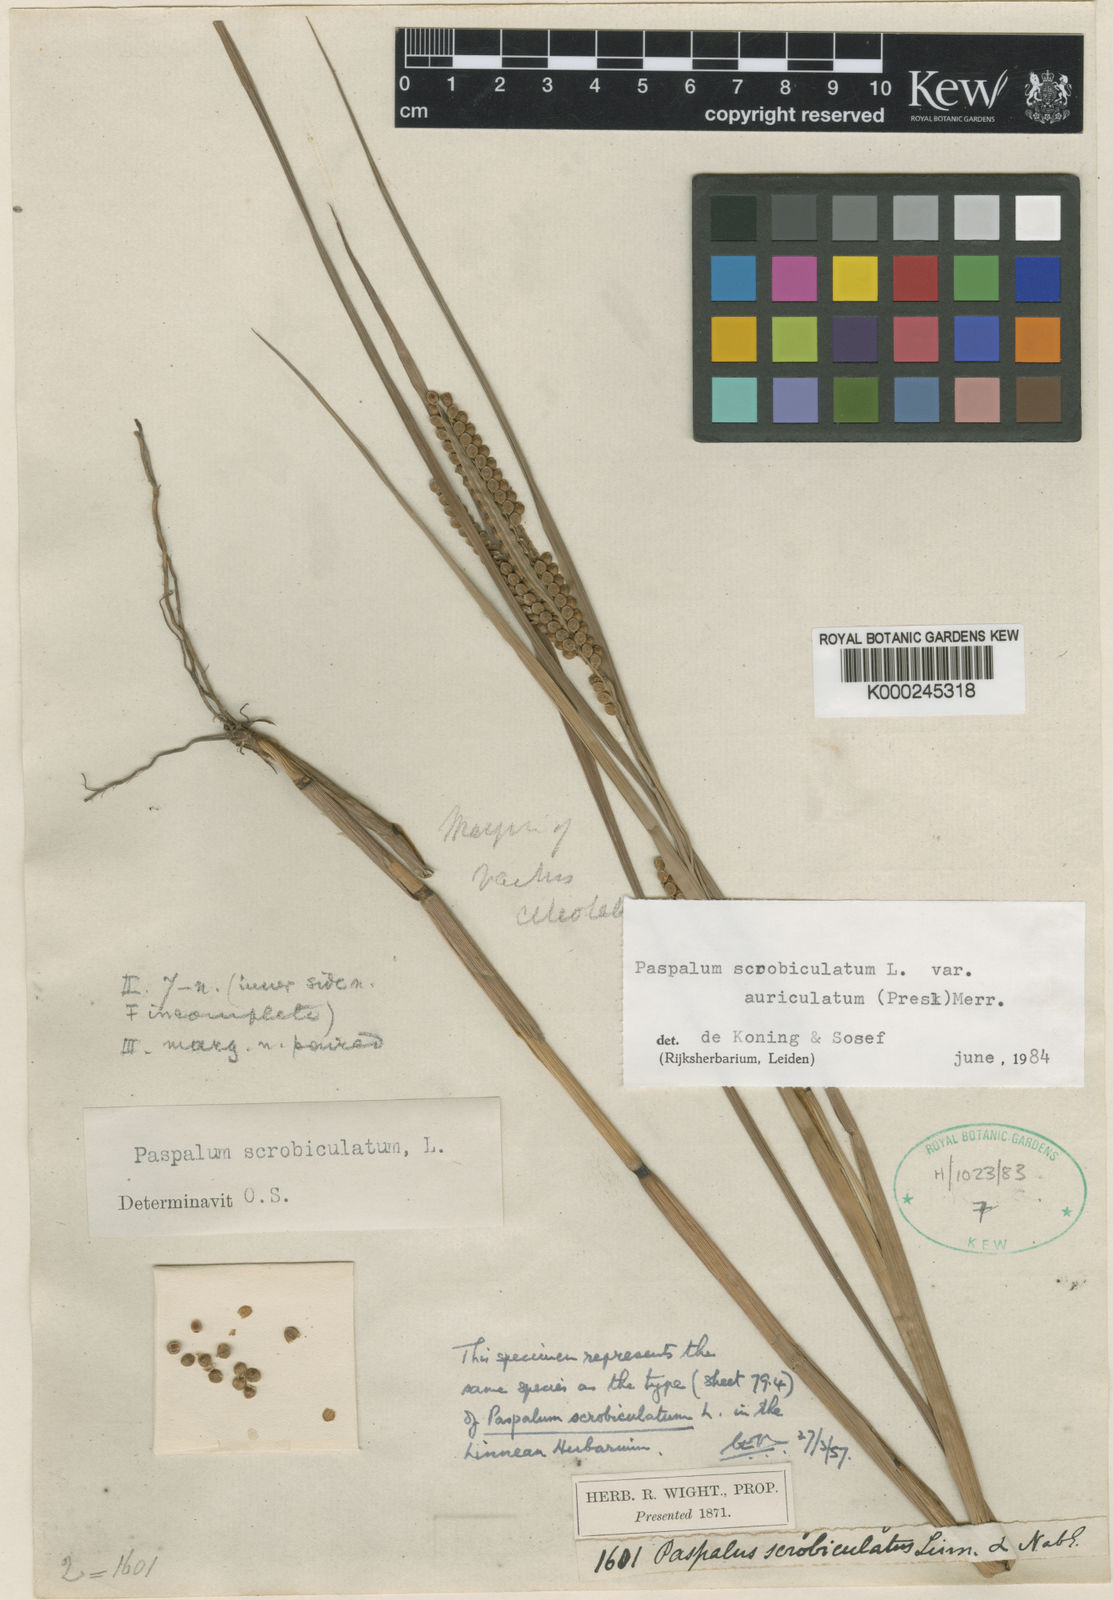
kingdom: Plantae
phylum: Tracheophyta
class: Liliopsida
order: Poales
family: Poaceae
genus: Paspalum
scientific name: Paspalum scrobiculatum
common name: Kodo millet
